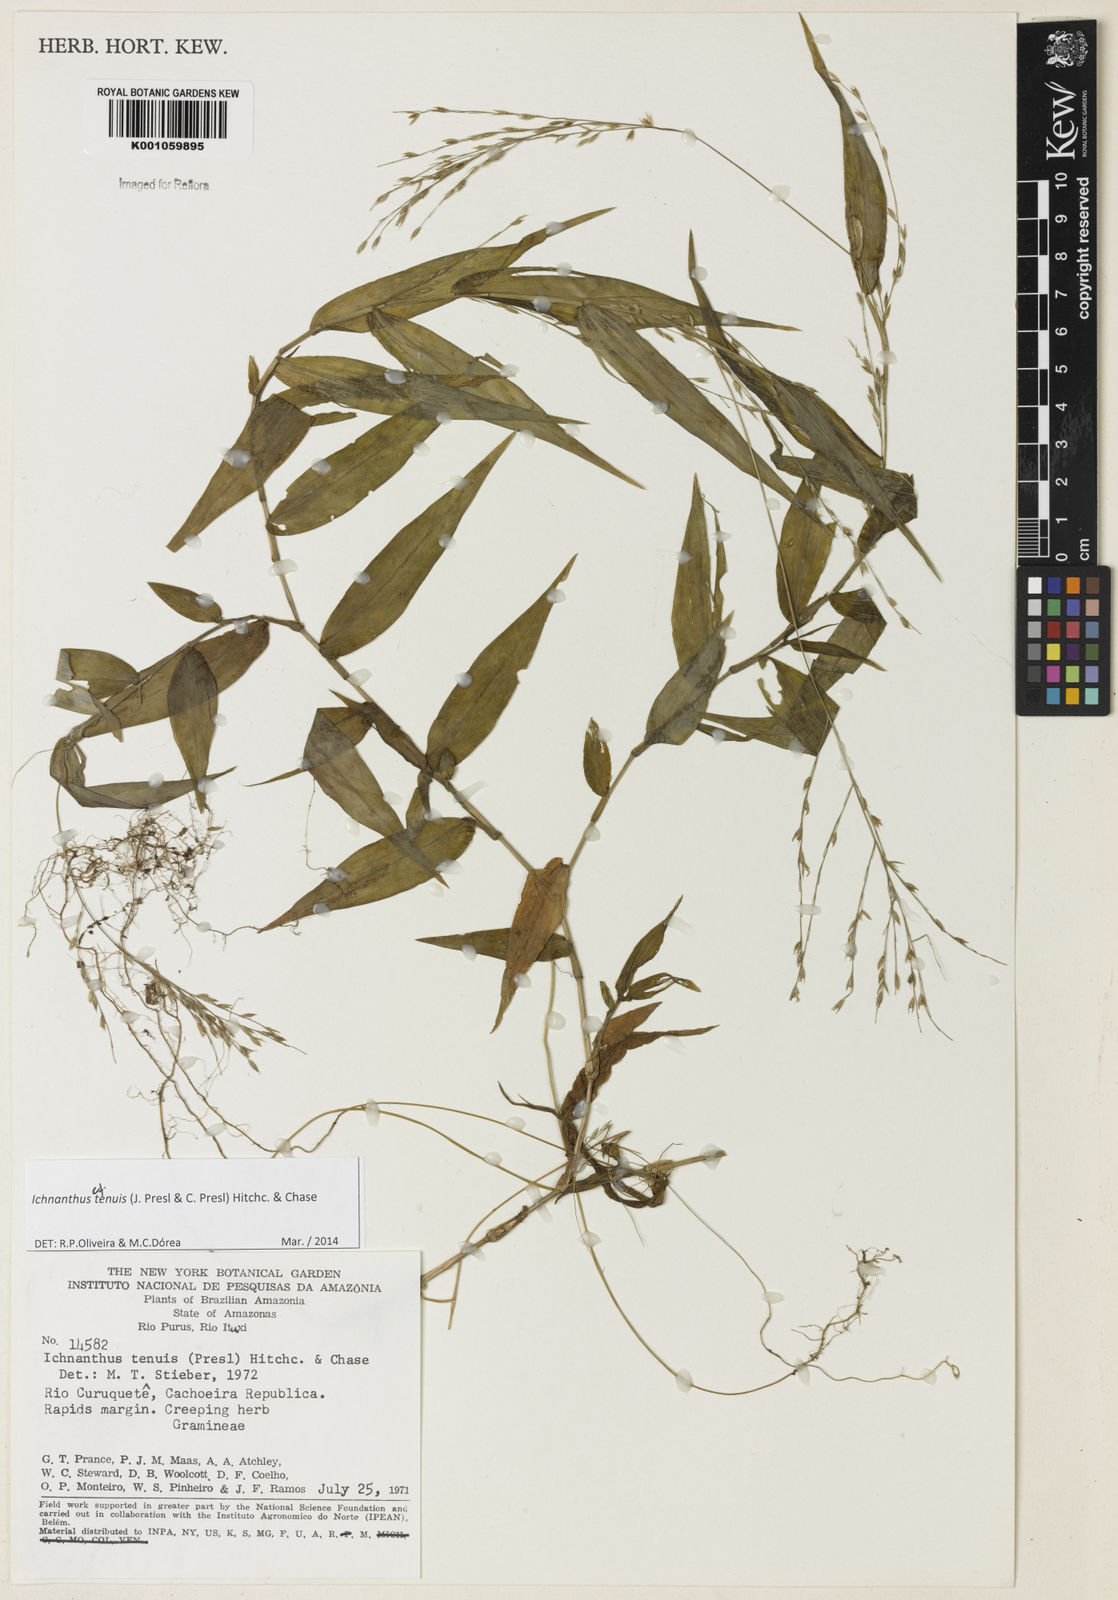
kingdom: Plantae
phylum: Tracheophyta
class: Liliopsida
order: Poales
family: Poaceae
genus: Ichnanthus
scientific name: Ichnanthus tenuis
